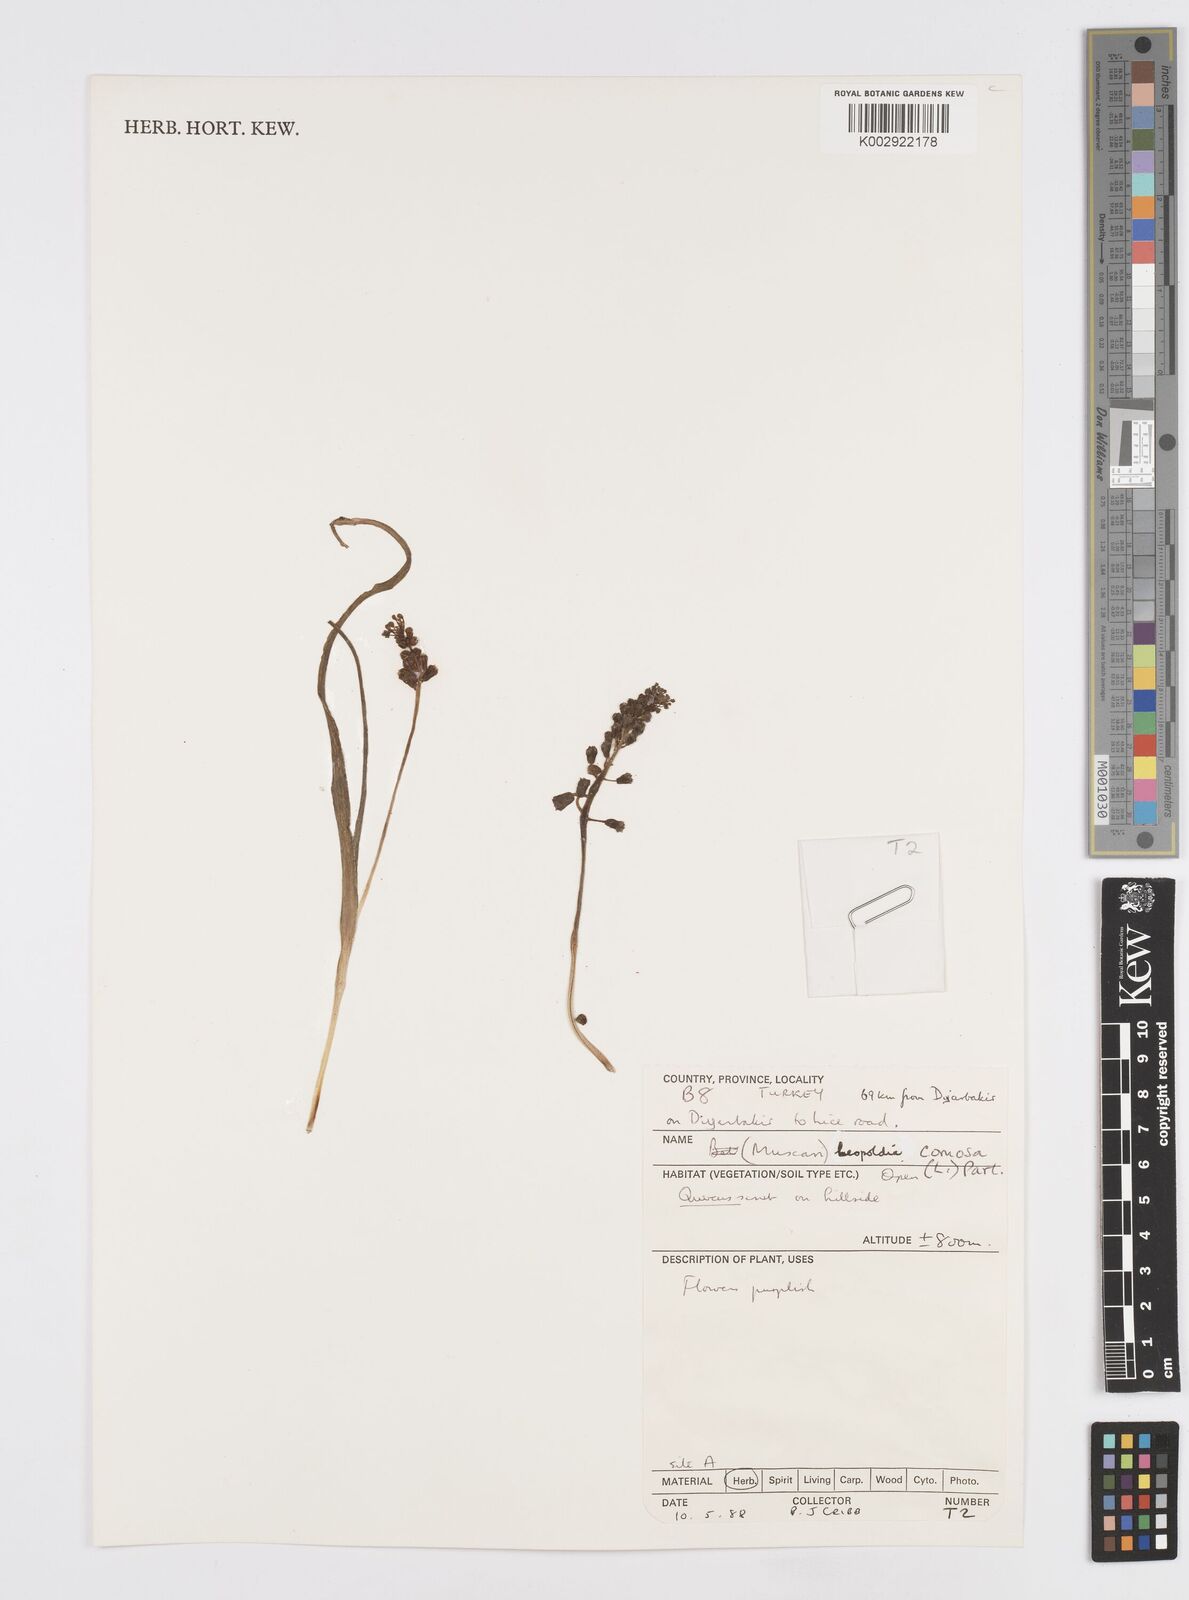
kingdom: Plantae
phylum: Tracheophyta
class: Liliopsida
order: Asparagales
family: Asparagaceae
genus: Muscari
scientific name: Muscari comosum
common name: Tassel hyacinth
